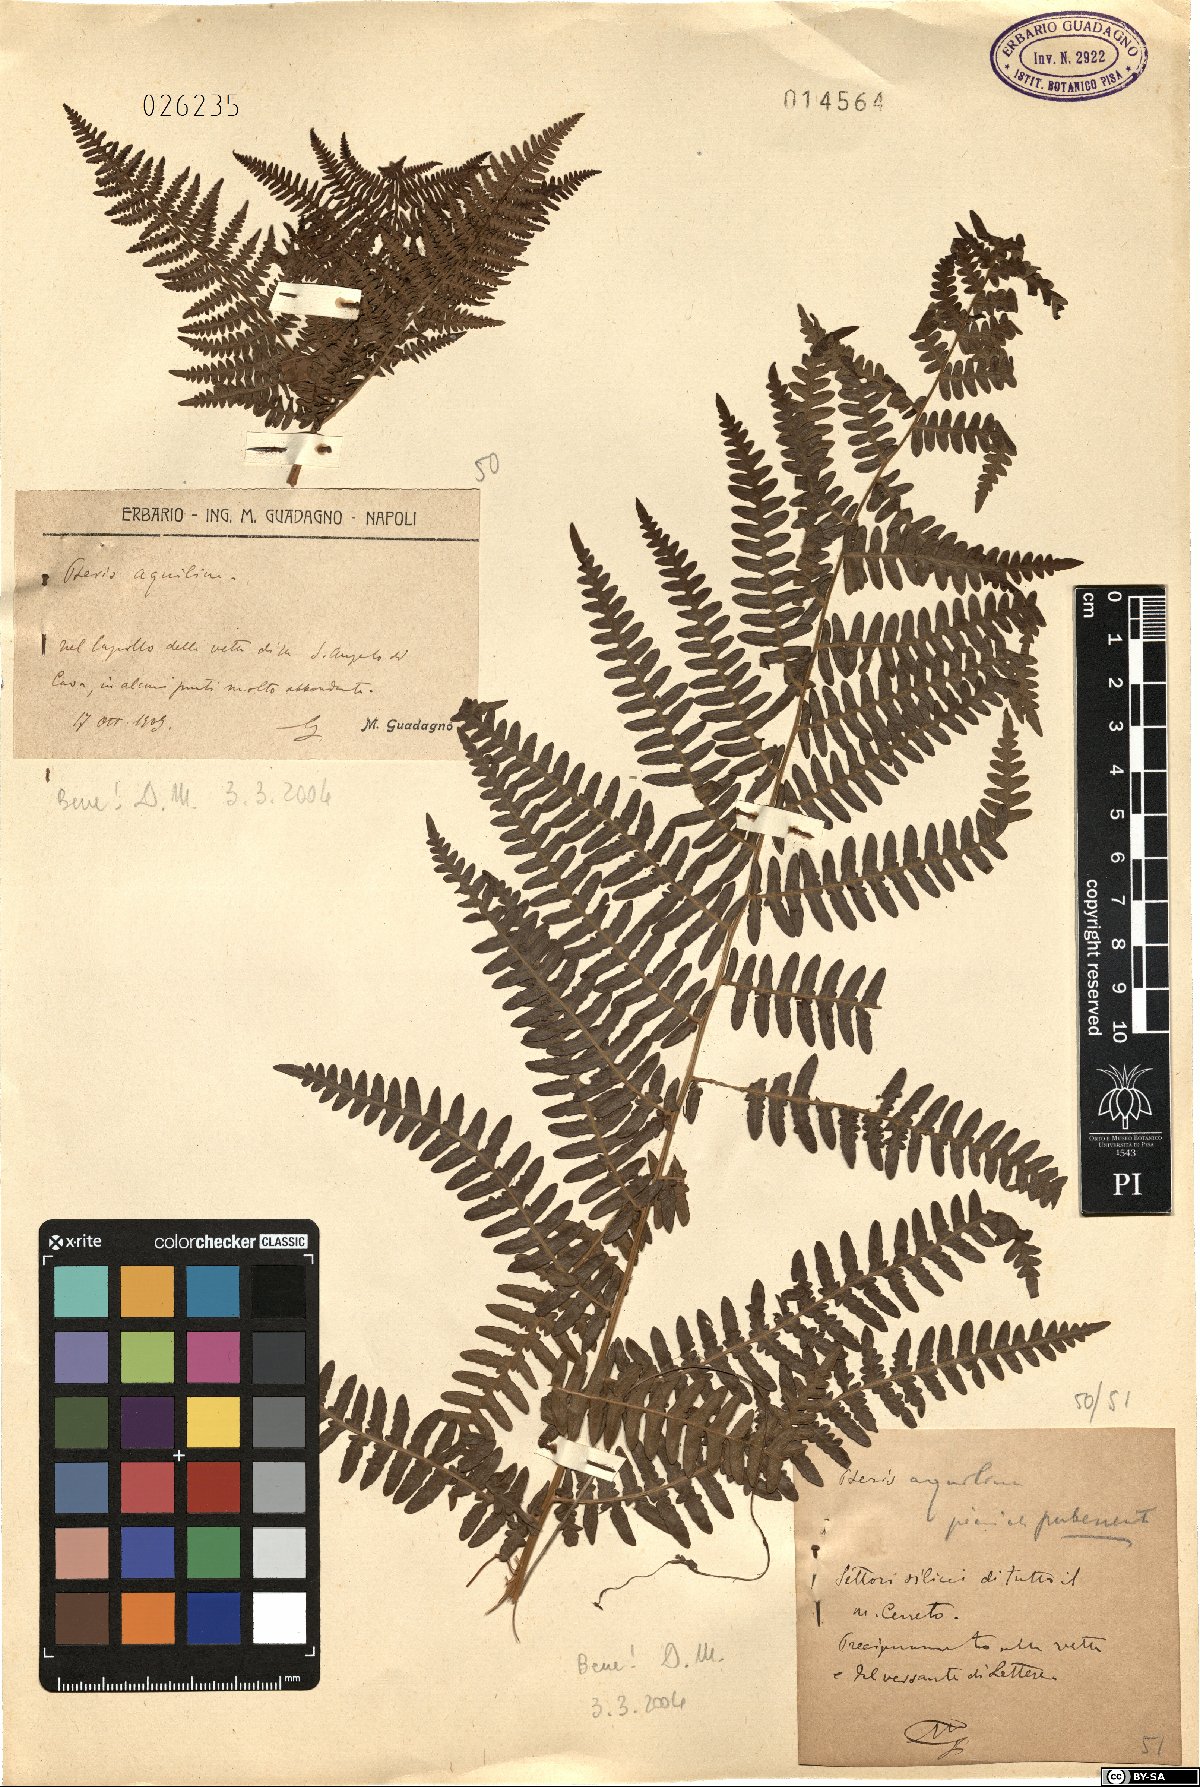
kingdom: Plantae
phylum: Tracheophyta
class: Polypodiopsida
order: Polypodiales
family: Dennstaedtiaceae
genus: Pteridium
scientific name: Pteridium aquilinum
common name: Bracken
